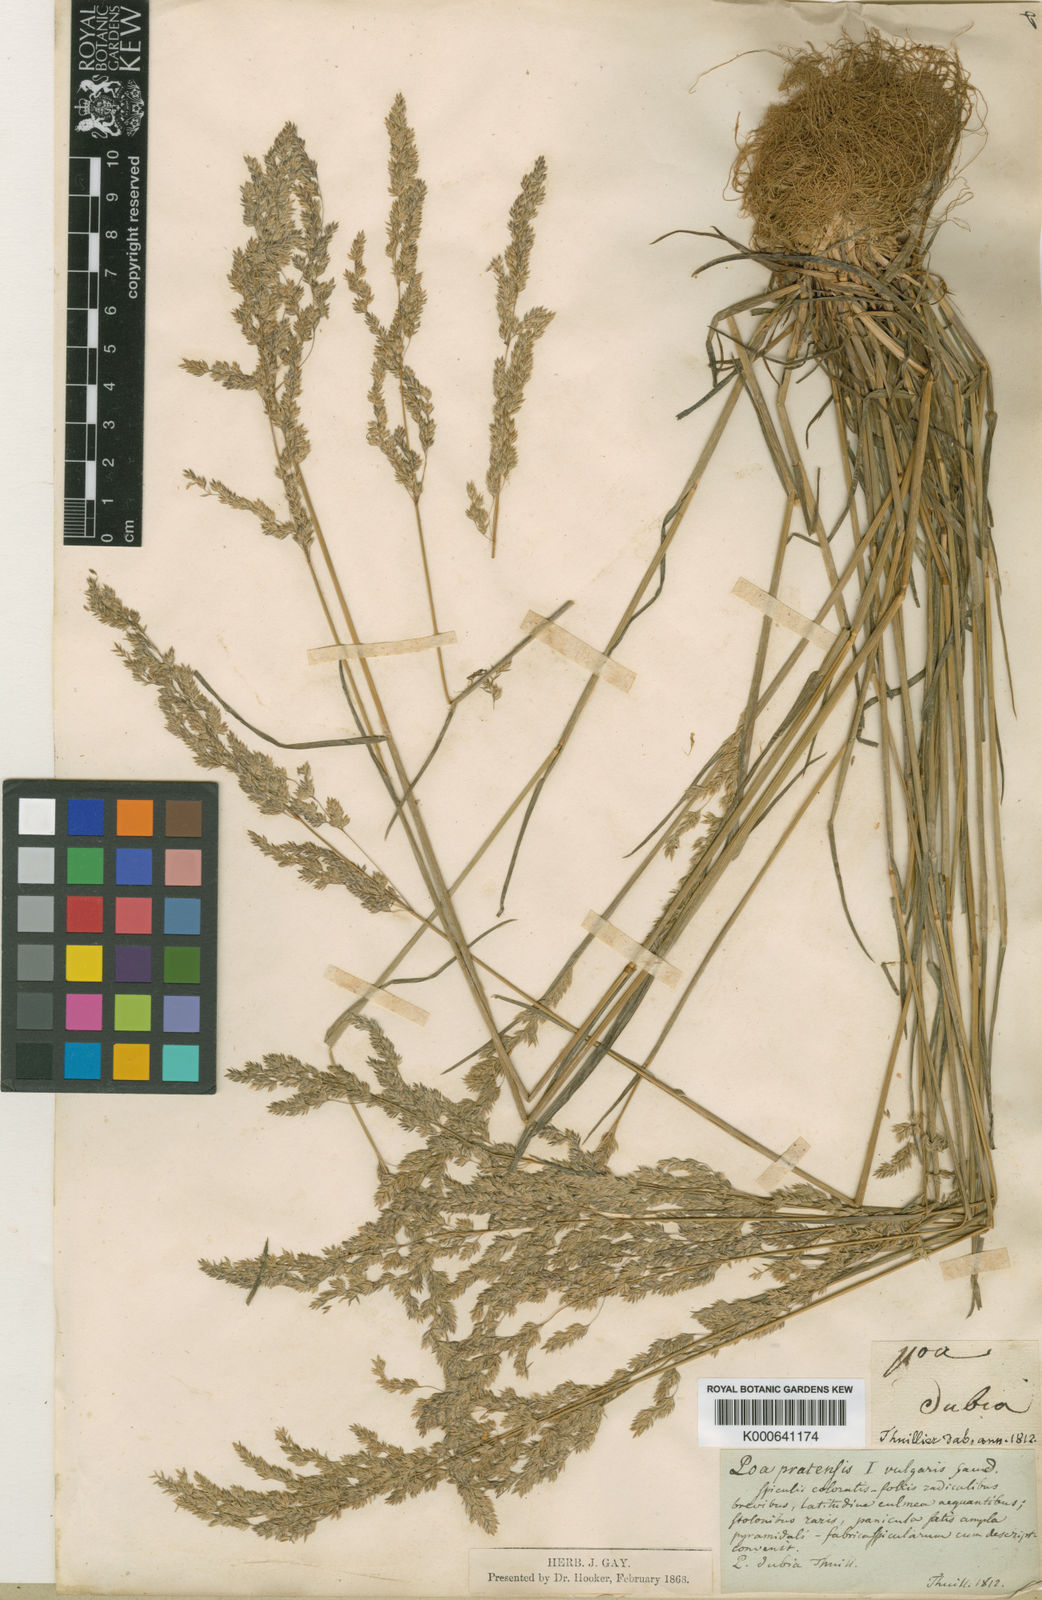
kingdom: Plantae
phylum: Tracheophyta
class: Liliopsida
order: Poales
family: Poaceae
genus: Poa
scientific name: Poa trivialis
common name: Rough bluegrass
